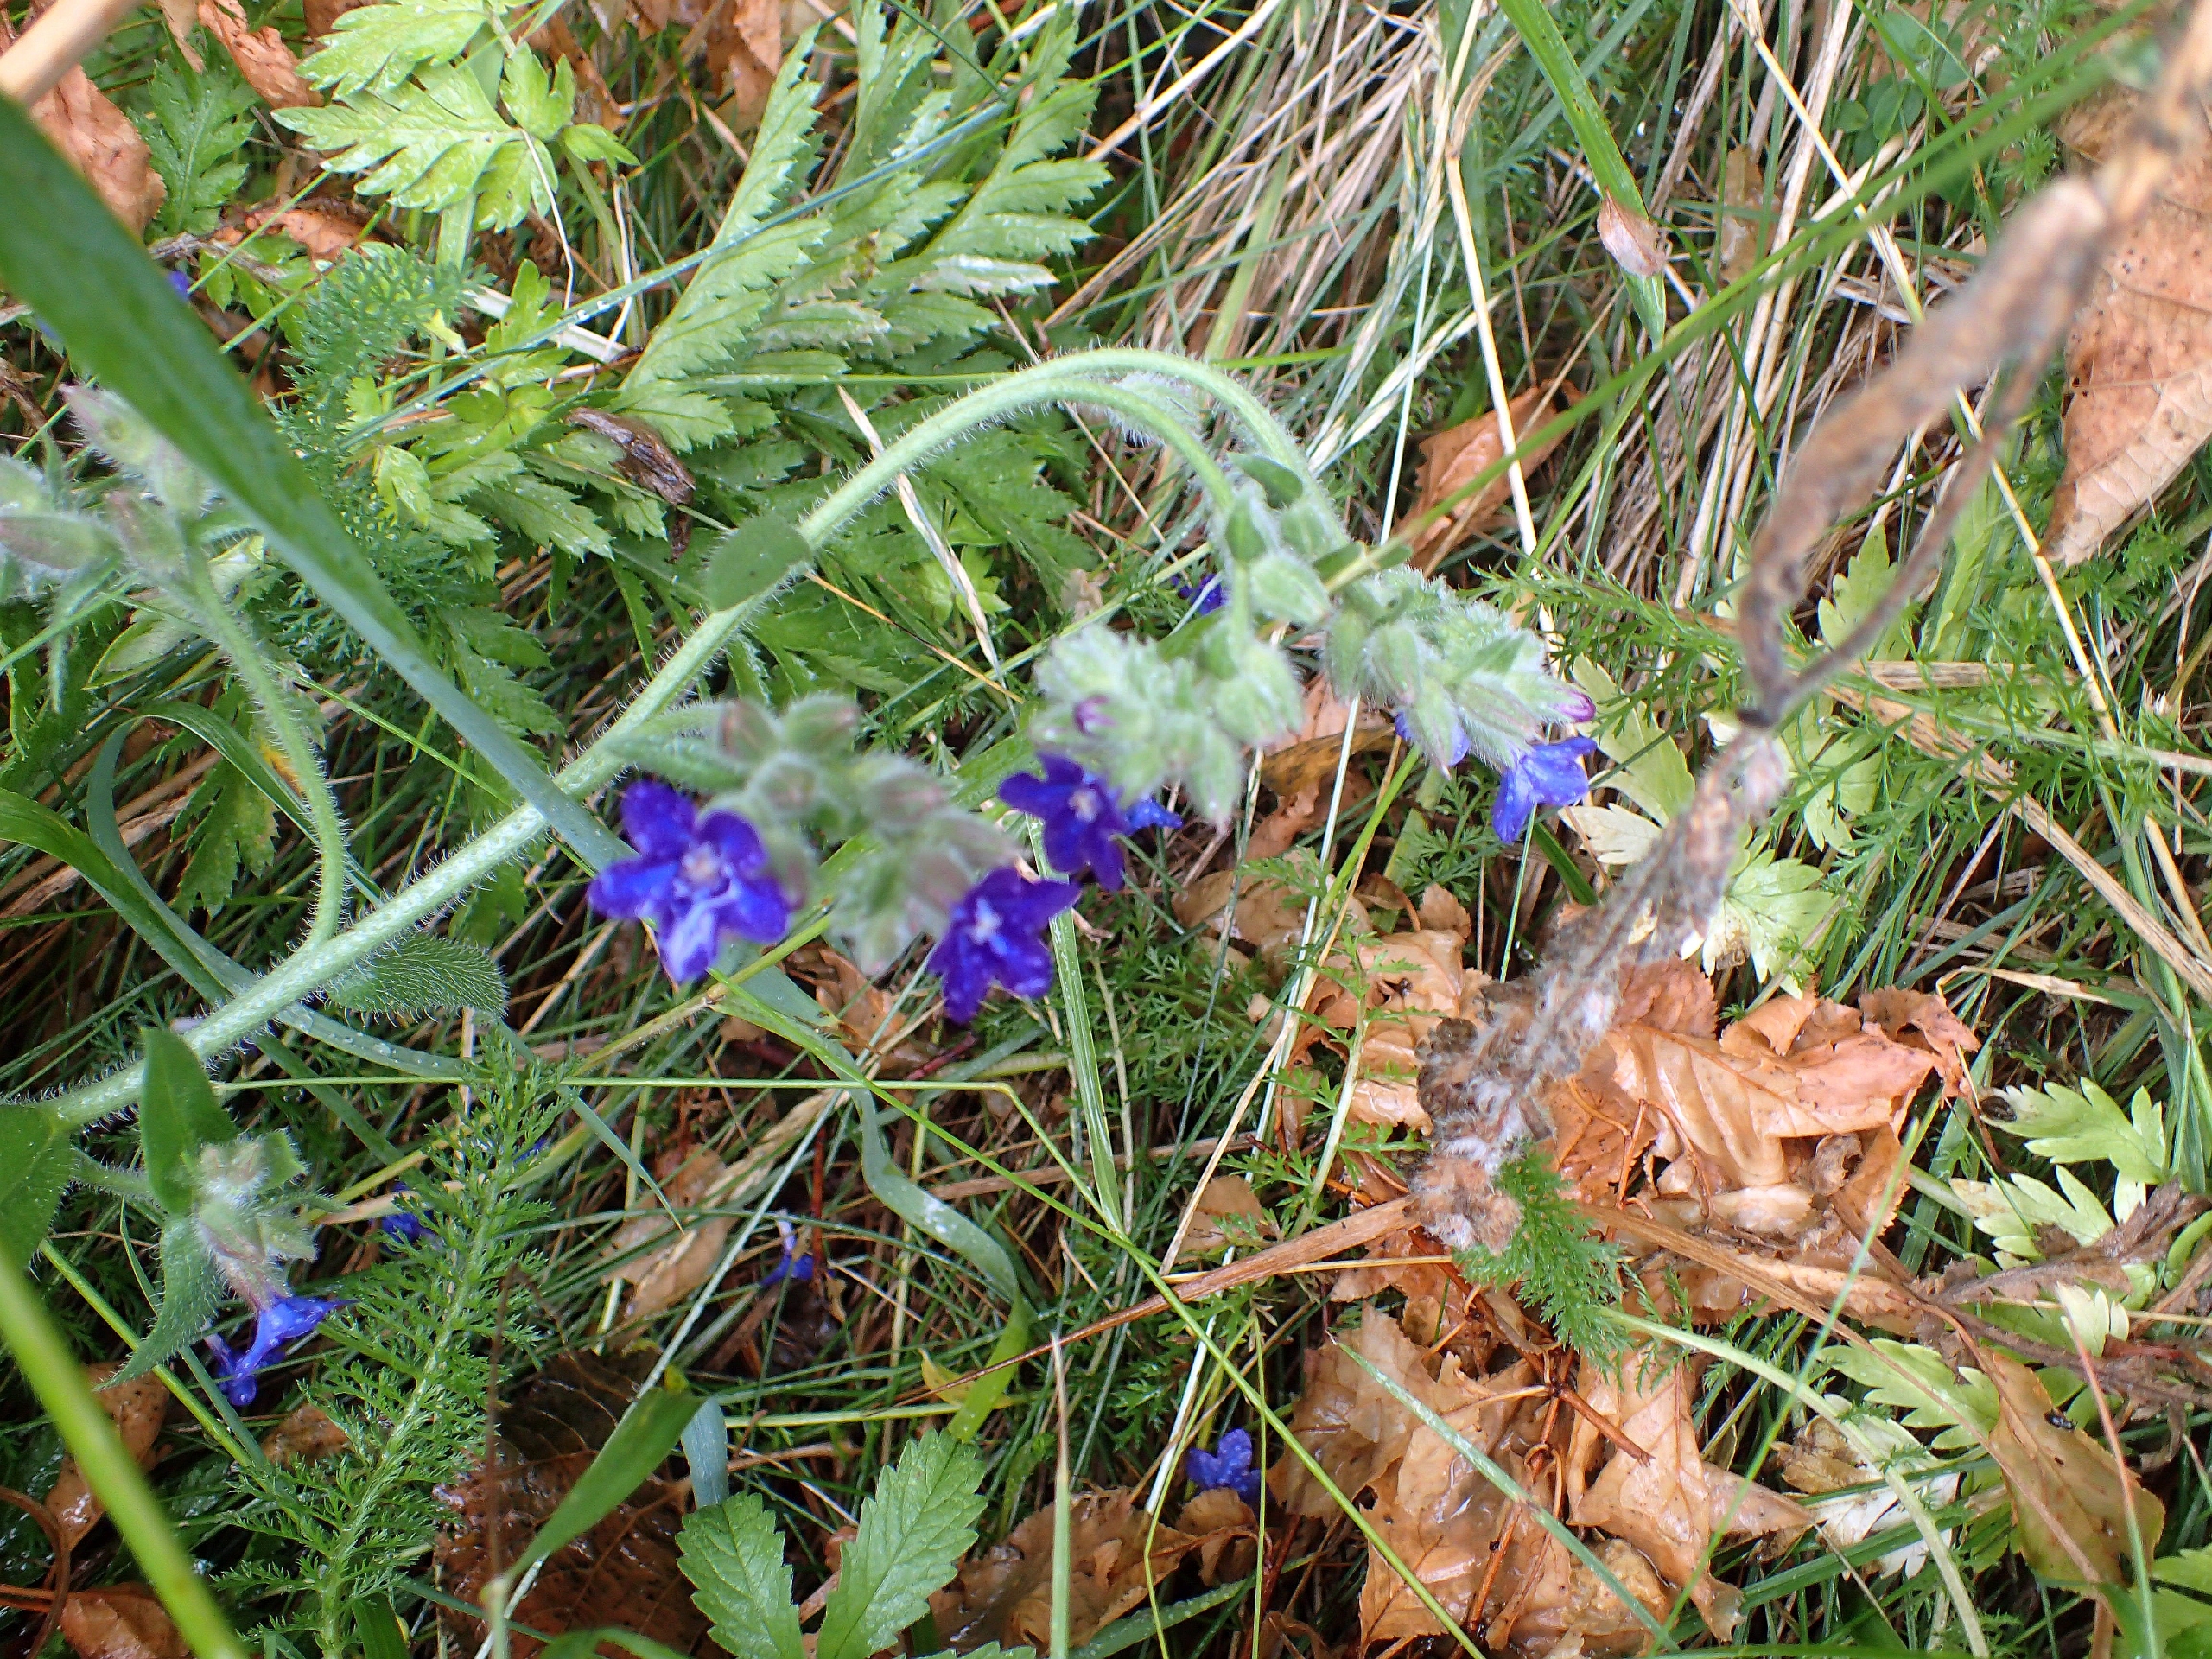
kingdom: Plantae
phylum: Tracheophyta
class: Magnoliopsida
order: Boraginales
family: Boraginaceae
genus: Anchusa
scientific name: Anchusa officinalis
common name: Læge-oksetunge
